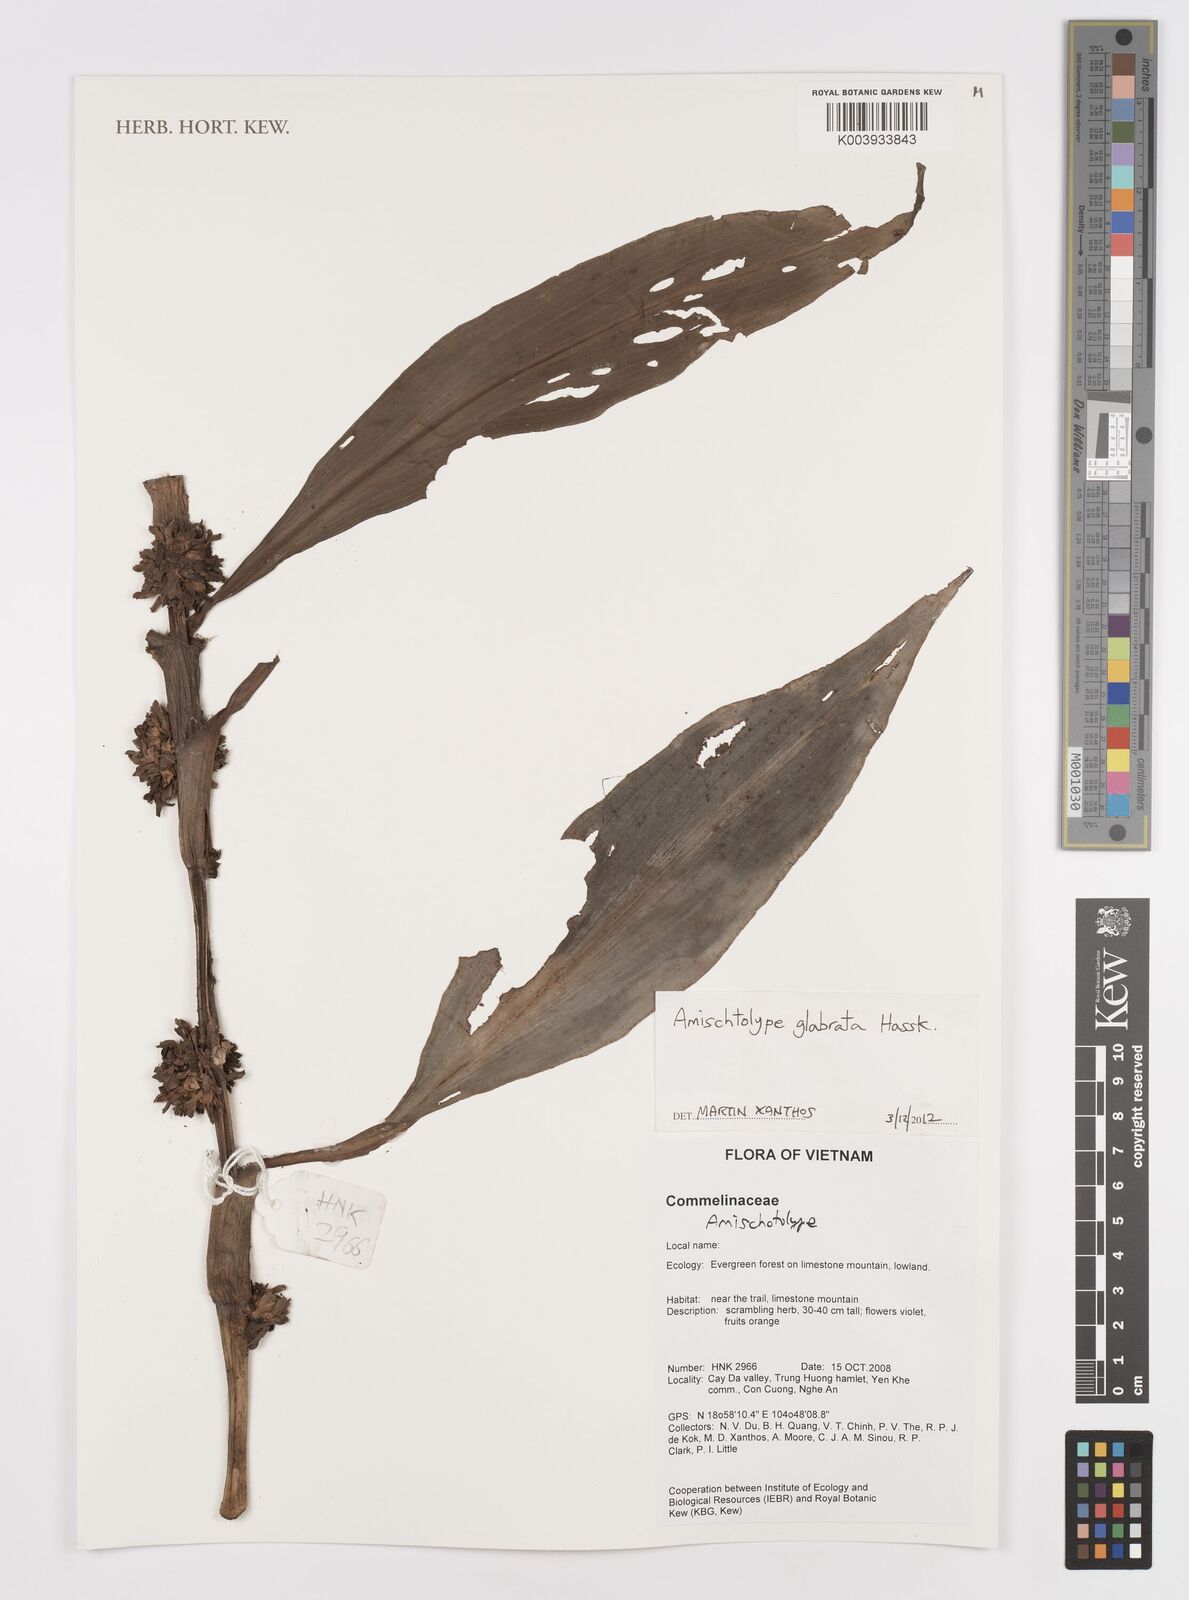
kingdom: Plantae
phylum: Tracheophyta
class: Liliopsida
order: Commelinales
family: Commelinaceae
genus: Amischotolype
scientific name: Amischotolype glabrata
